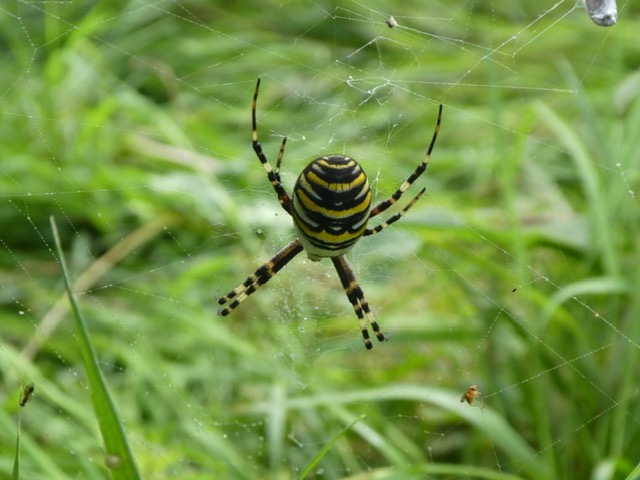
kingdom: Animalia
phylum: Arthropoda
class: Arachnida
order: Araneae
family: Araneidae
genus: Argiope
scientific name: Argiope bruennichi
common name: Hvepseedderkop
